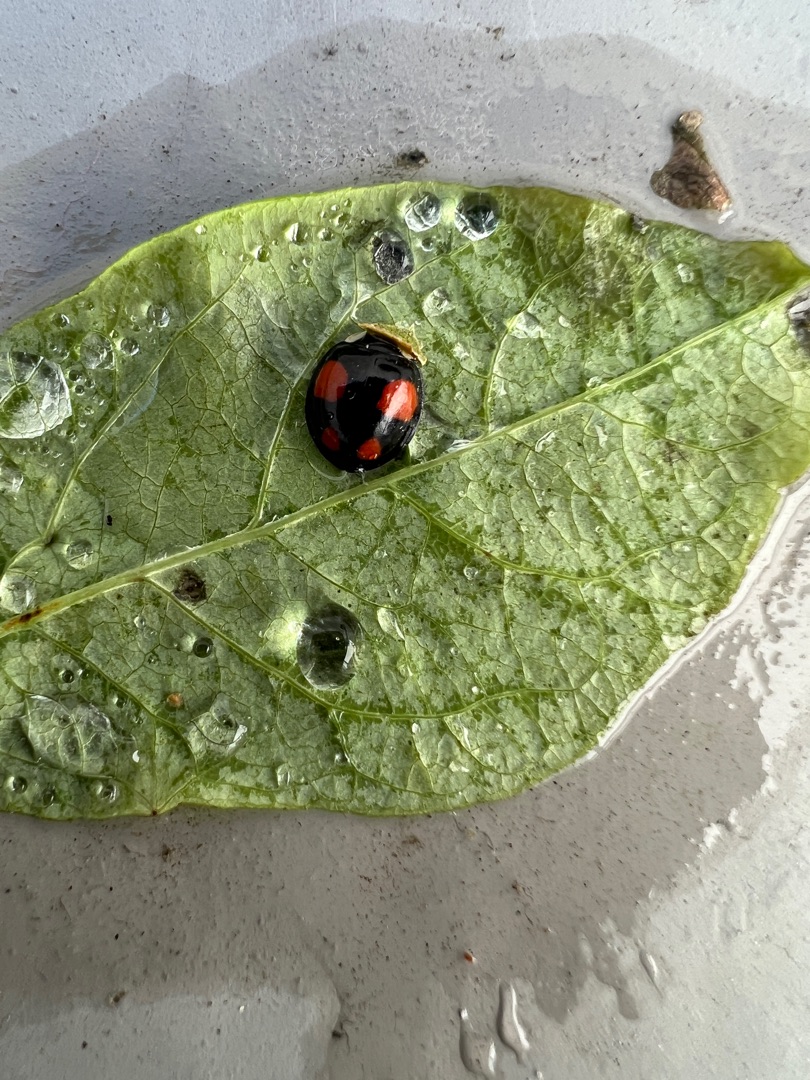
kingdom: Animalia
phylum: Arthropoda
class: Insecta
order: Coleoptera
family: Coccinellidae
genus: Harmonia
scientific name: Harmonia axyridis
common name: Harlekinmariehøne
